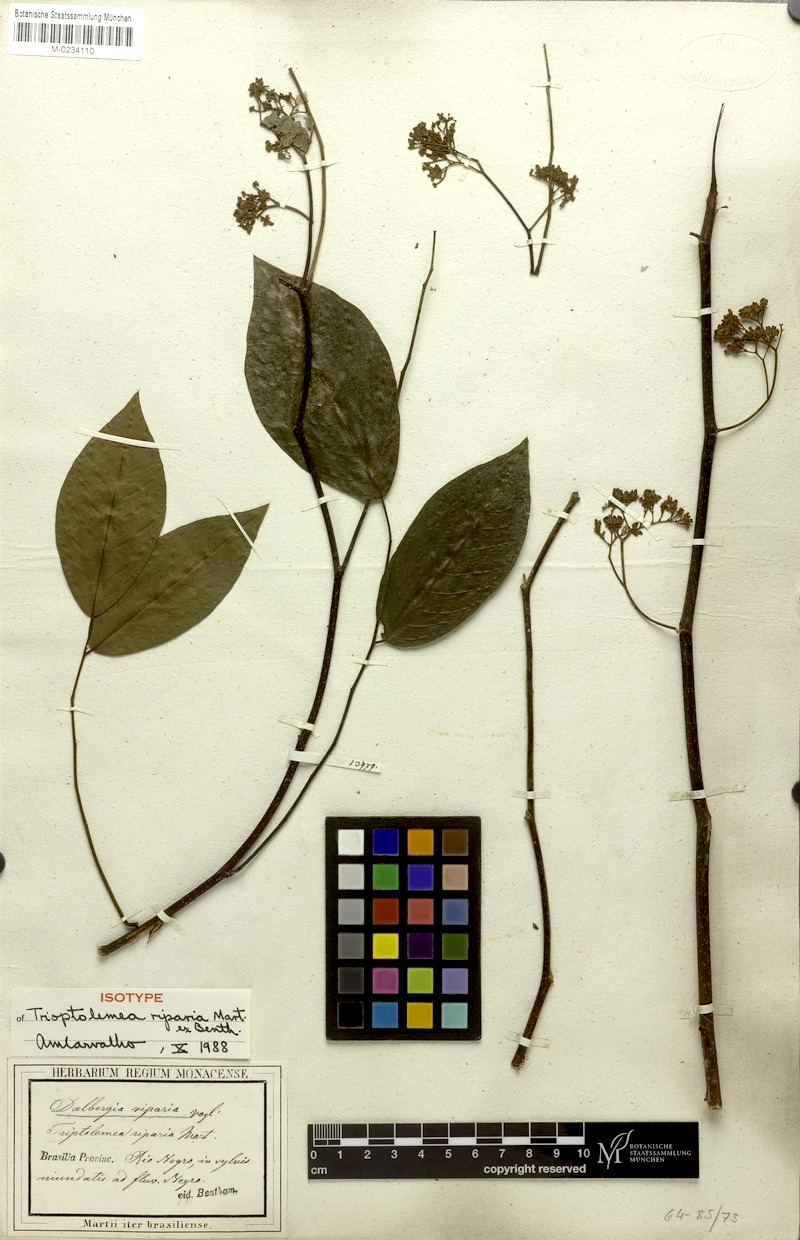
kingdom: Plantae
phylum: Tracheophyta
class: Magnoliopsida
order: Fabales
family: Fabaceae
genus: Dalbergia
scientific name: Dalbergia riparia
